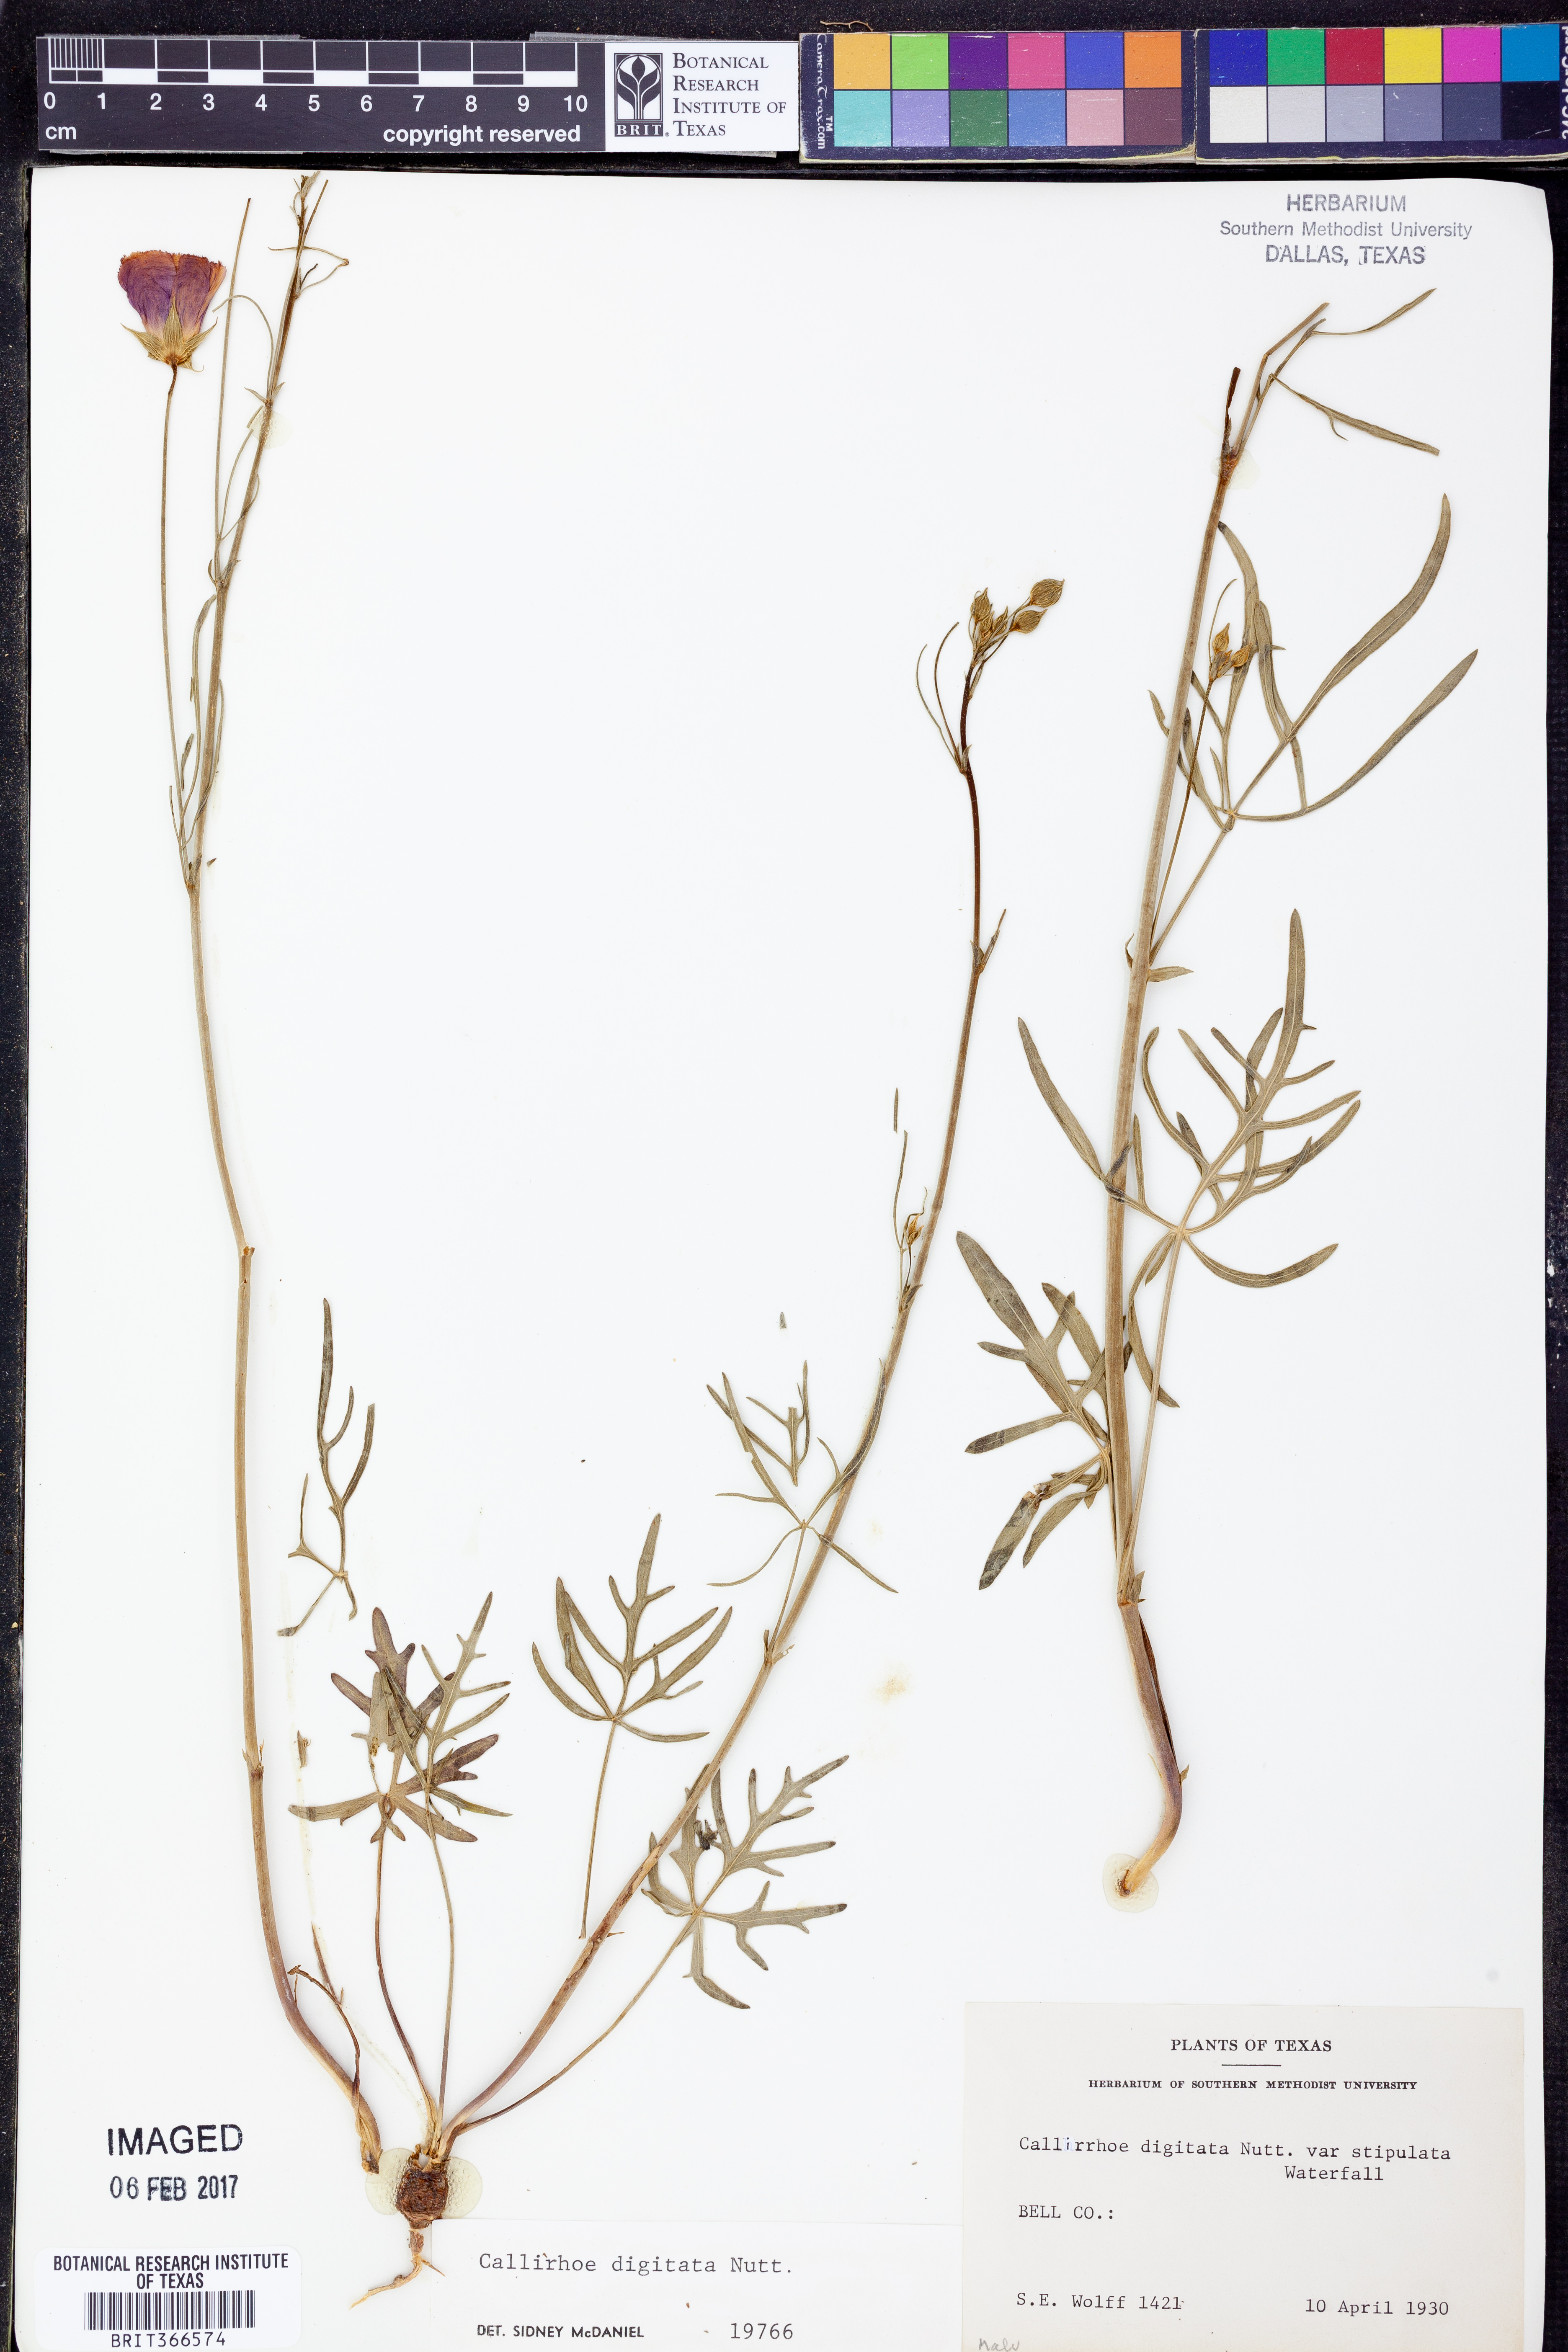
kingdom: Plantae
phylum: Tracheophyta
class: Magnoliopsida
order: Malvales
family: Malvaceae
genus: Callirhoe
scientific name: Callirhoe digitata
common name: Finger poppy-mallow
